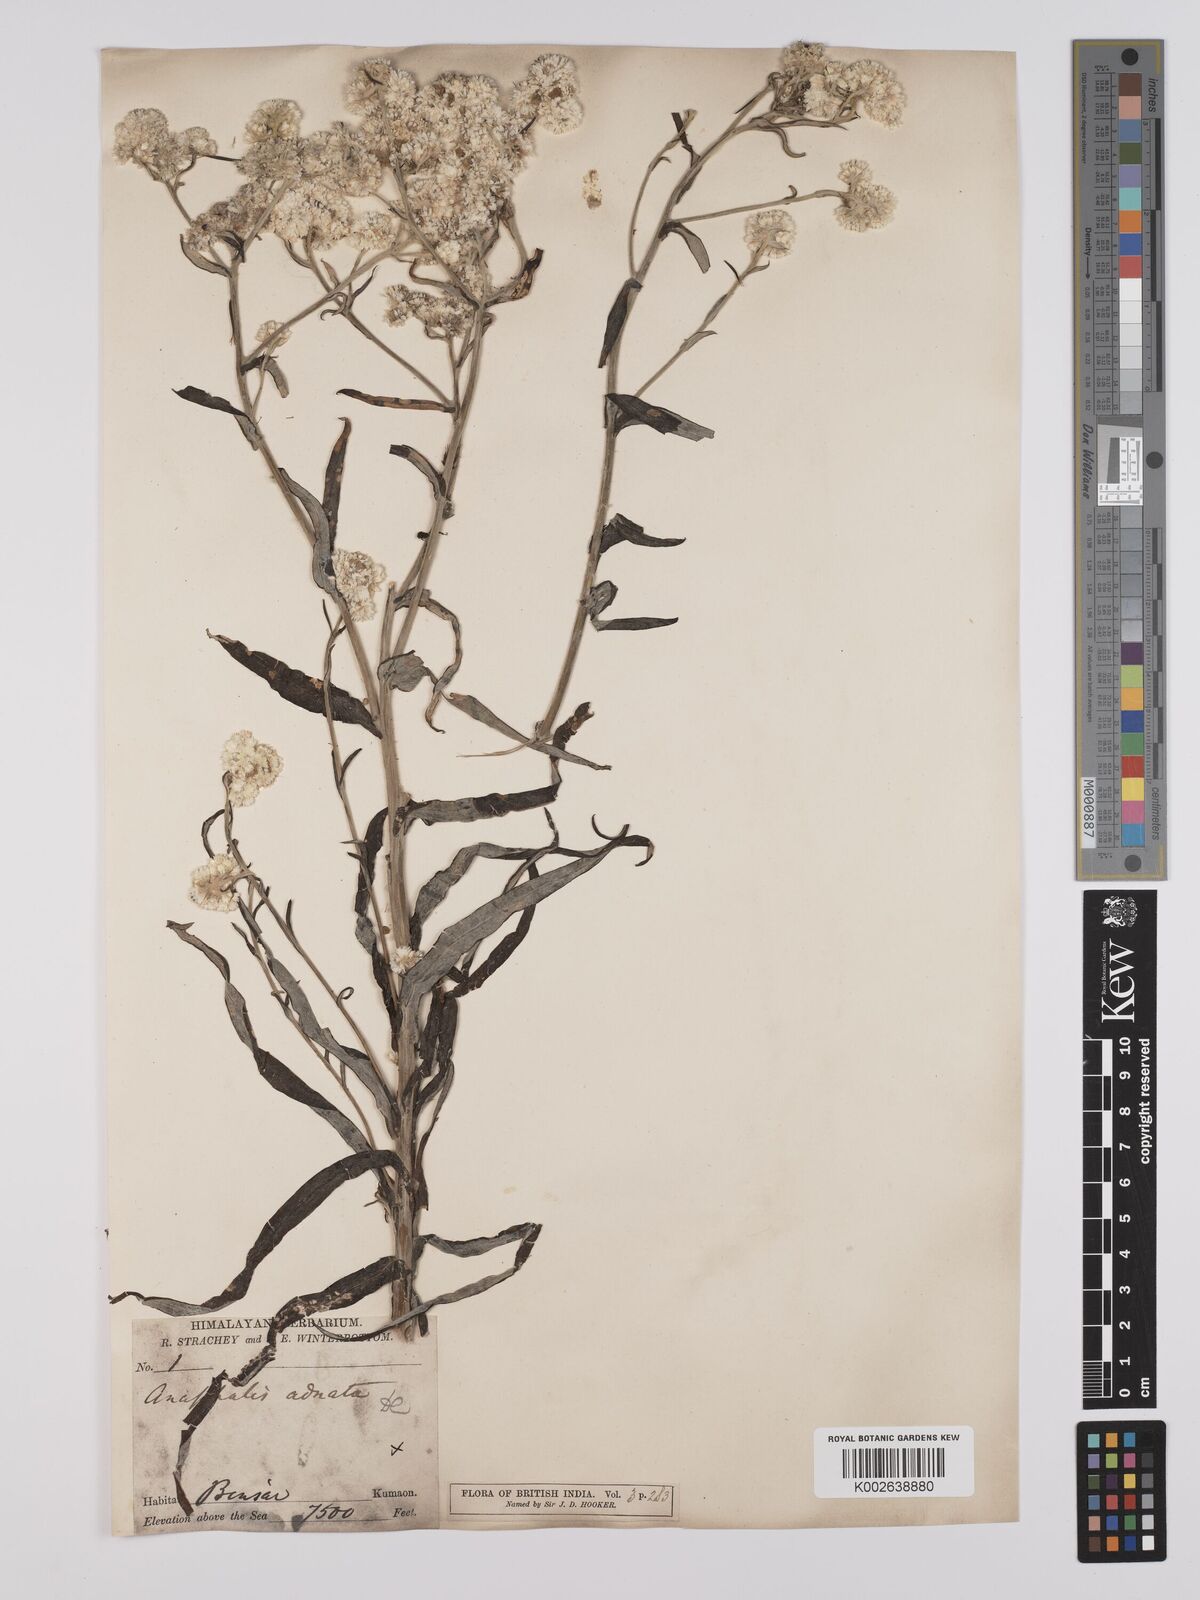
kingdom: Plantae
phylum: Tracheophyta
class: Magnoliopsida
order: Asterales
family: Asteraceae
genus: Anaphalis
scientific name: Anaphalis busua
